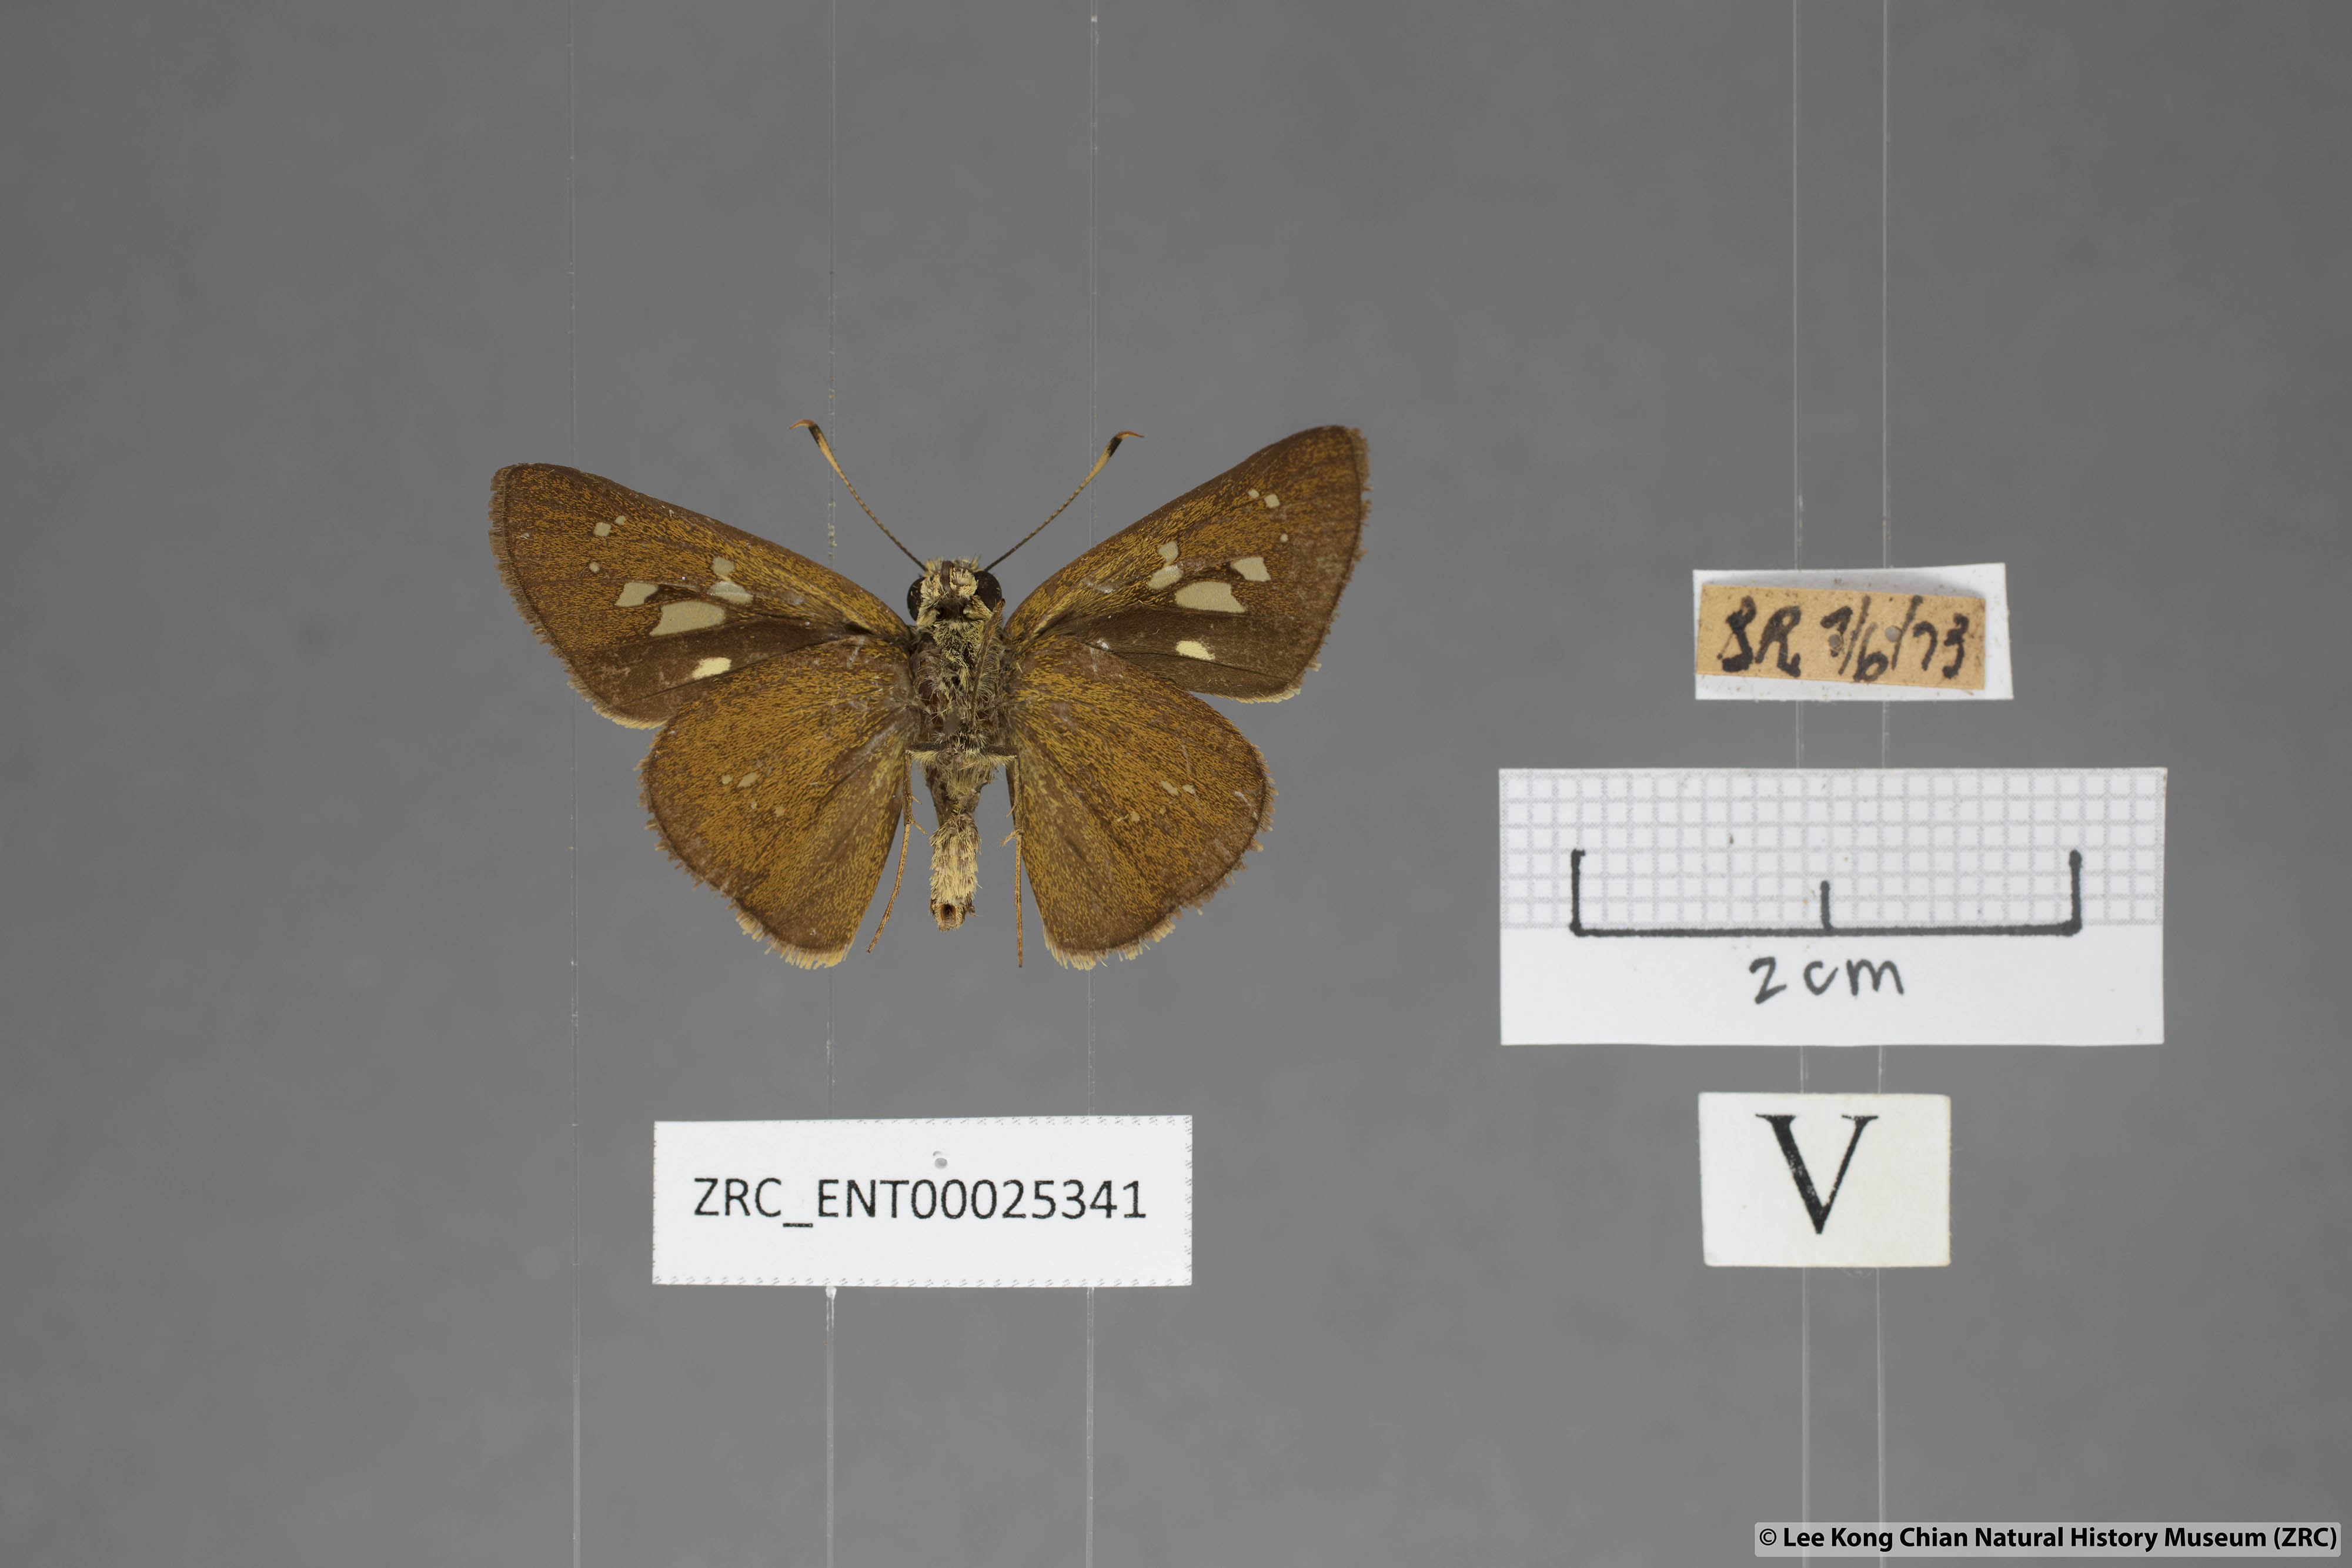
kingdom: Animalia
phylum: Arthropoda
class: Insecta
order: Lepidoptera
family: Hesperiidae
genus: Polytremis
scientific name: Polytremis lubricans
